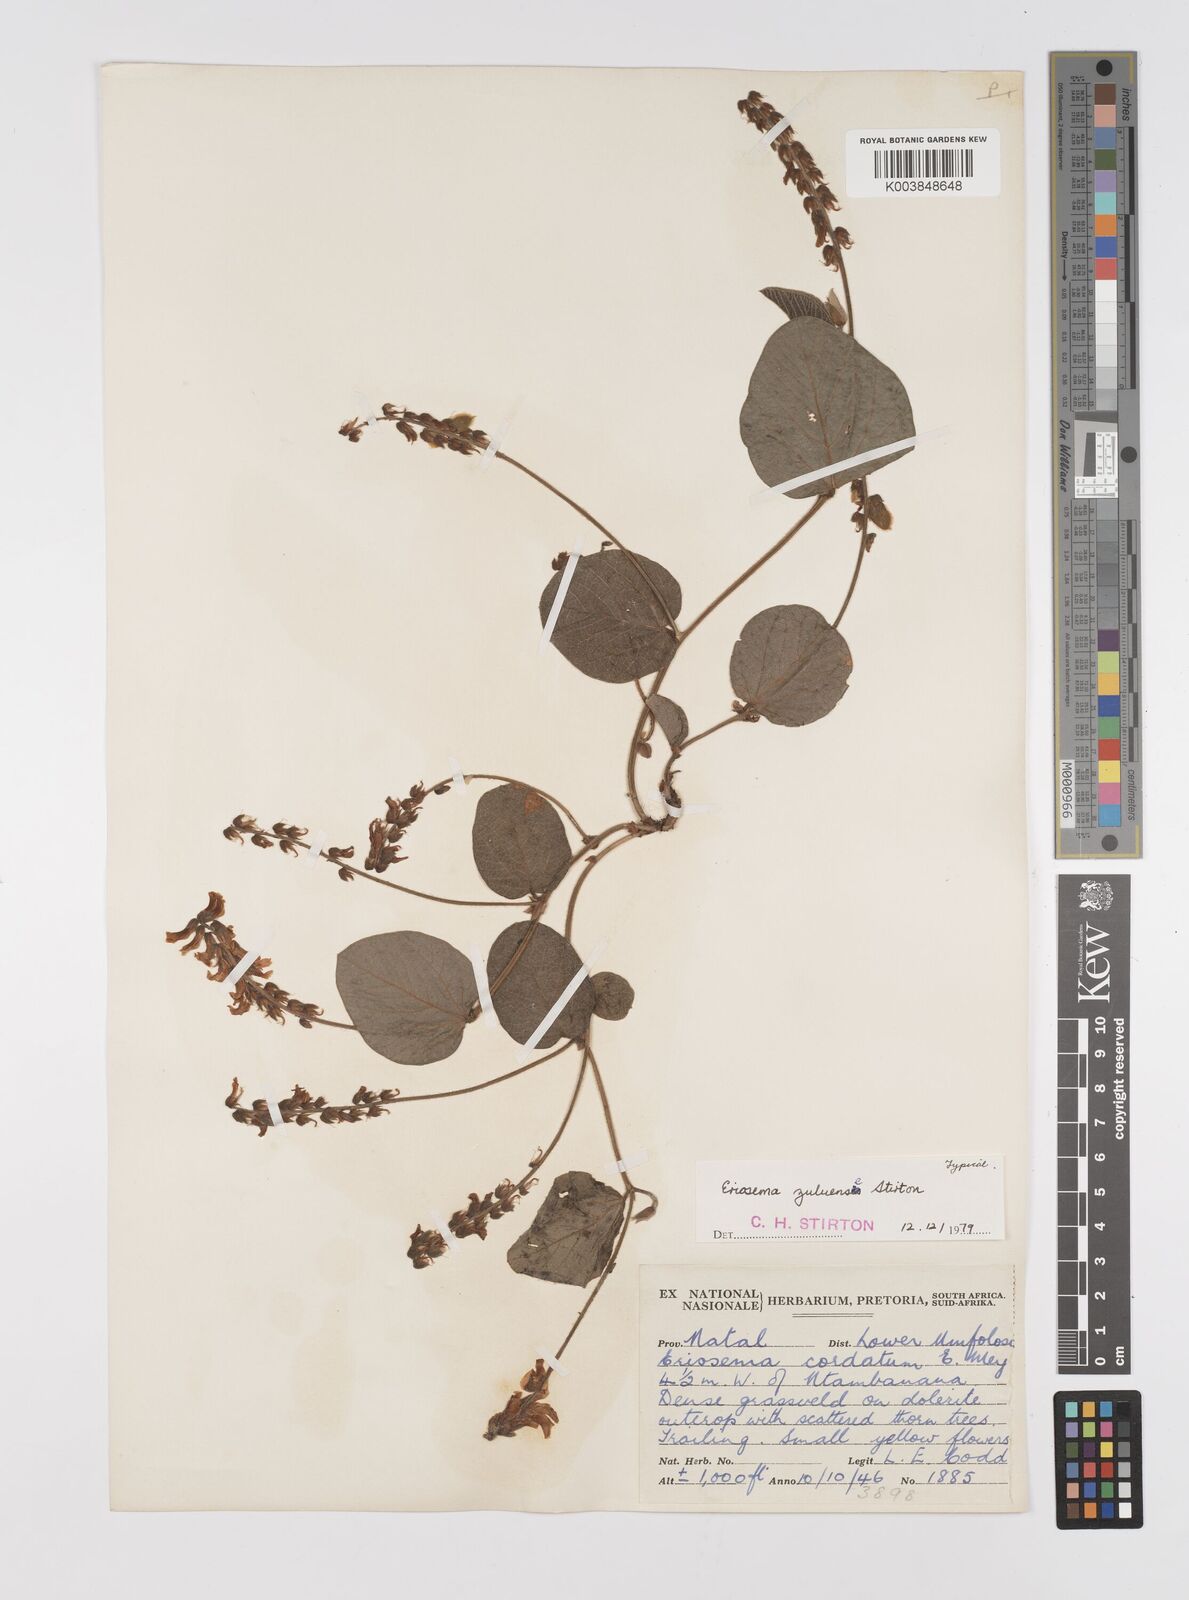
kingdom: Plantae
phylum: Tracheophyta
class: Magnoliopsida
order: Fabales
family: Fabaceae
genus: Eriosema
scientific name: Eriosema zuluense
